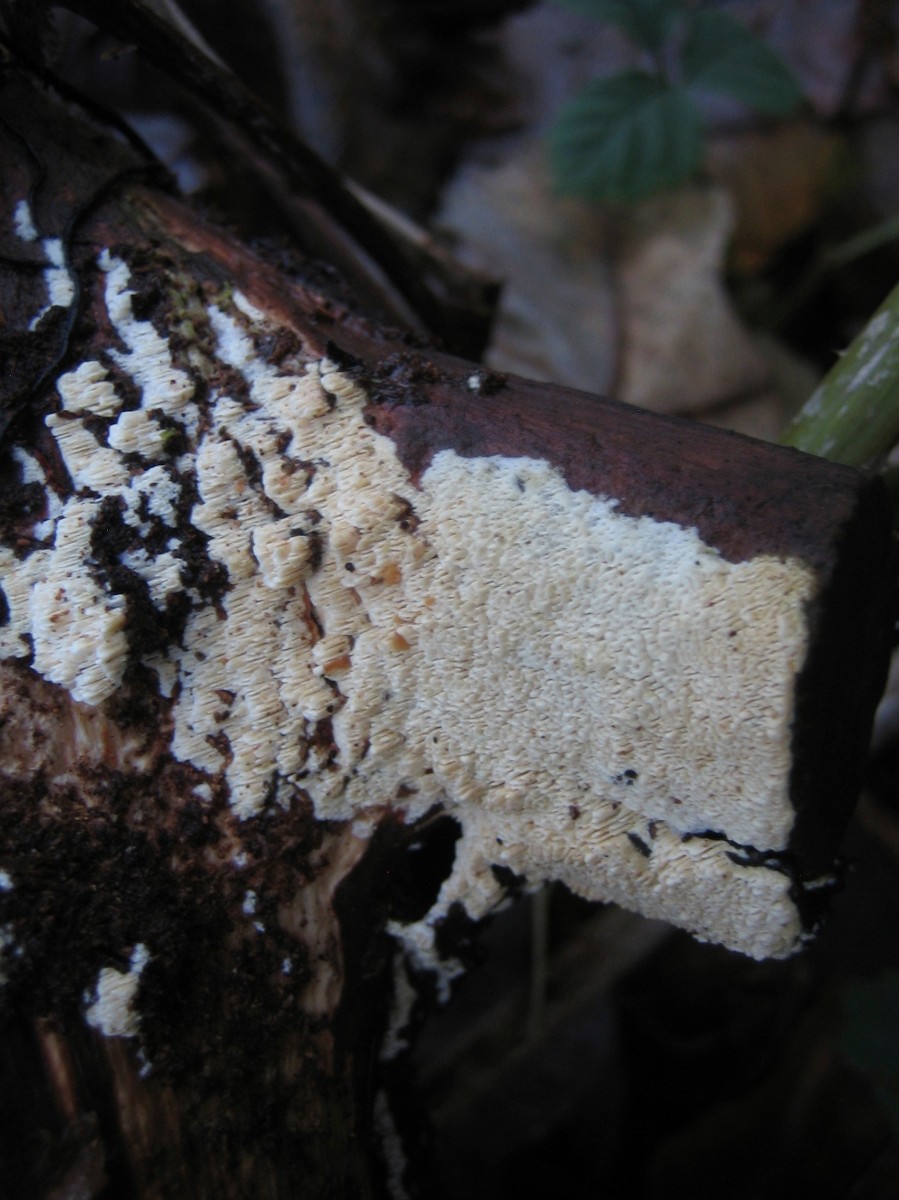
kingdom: Fungi
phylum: Basidiomycota
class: Agaricomycetes
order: Hymenochaetales
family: Schizoporaceae
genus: Schizopora
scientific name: Schizopora paradoxa
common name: hvid tandsvamp
